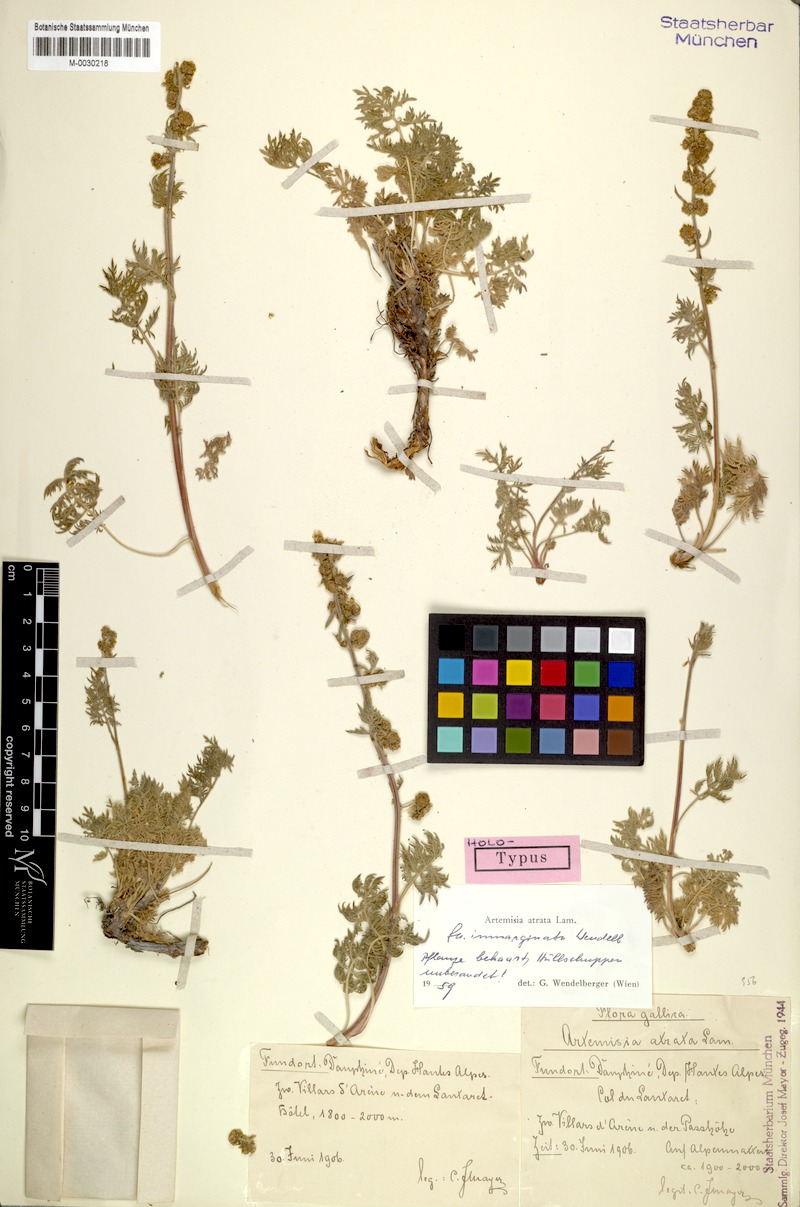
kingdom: Plantae
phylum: Tracheophyta
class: Magnoliopsida
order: Asterales
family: Asteraceae
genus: Artemisia
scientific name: Artemisia atrata
